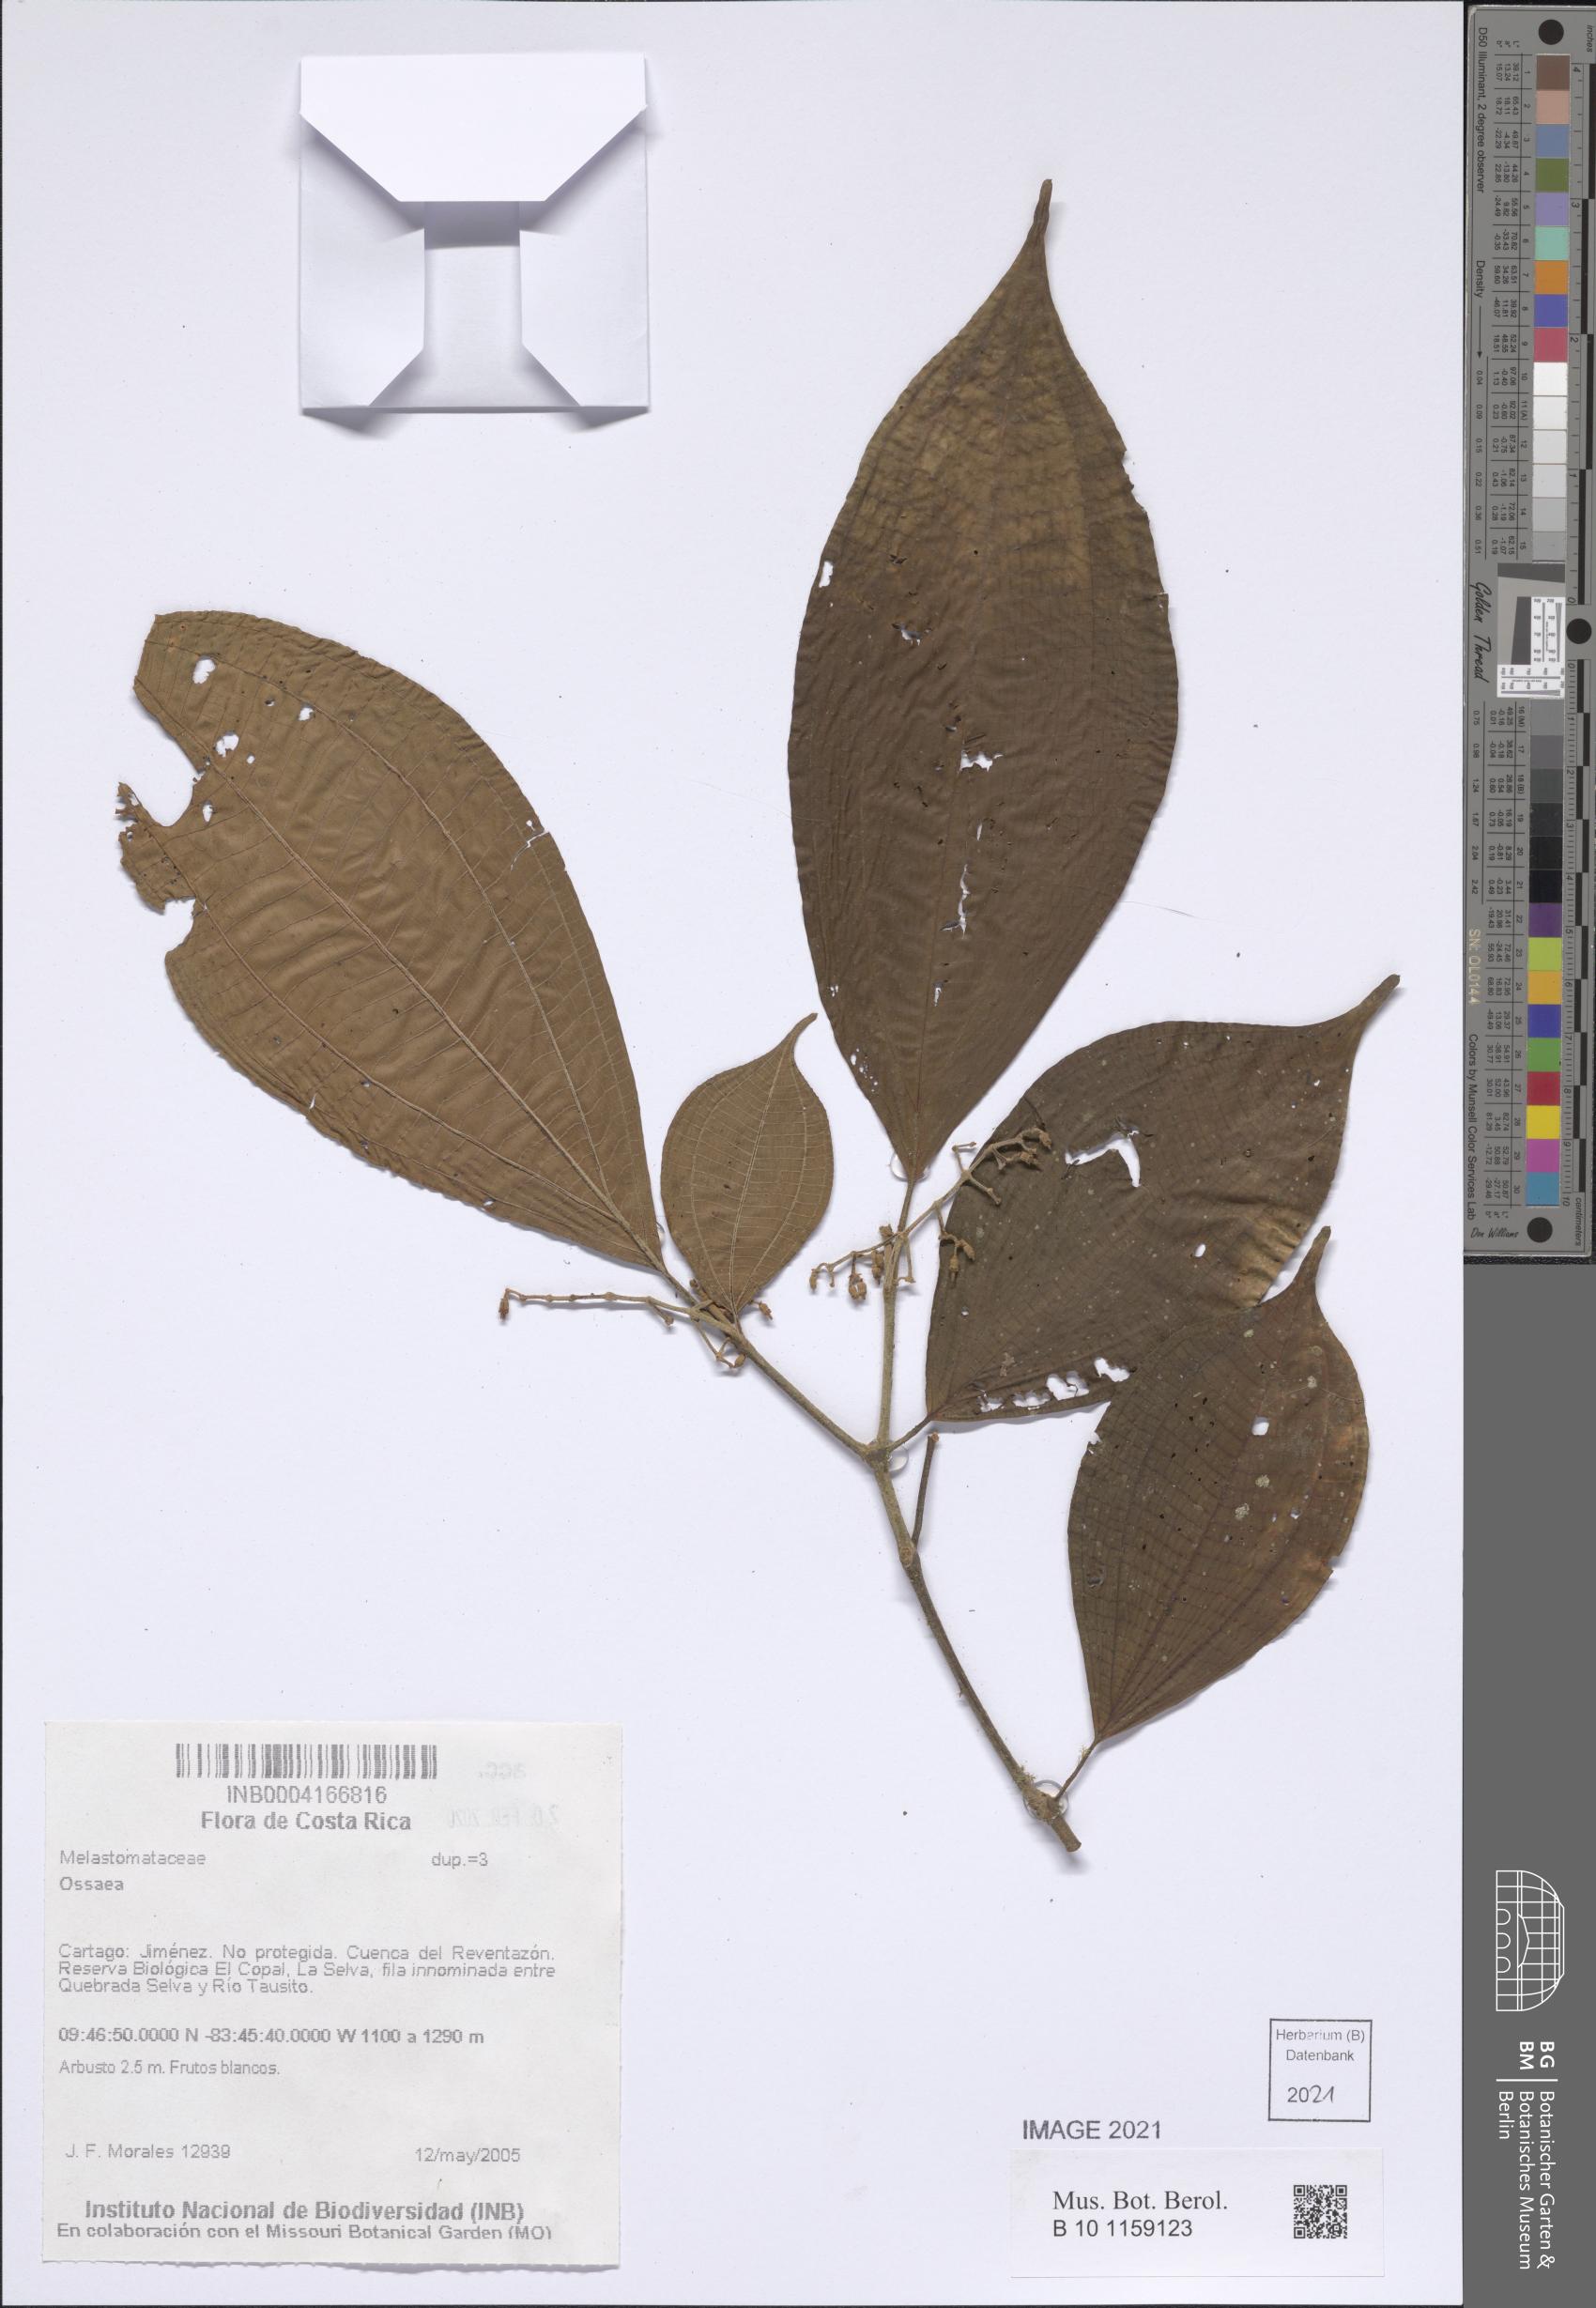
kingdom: Plantae
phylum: Tracheophyta
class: Magnoliopsida
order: Myrtales
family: Melastomataceae
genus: Ossaea
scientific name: Ossaea
